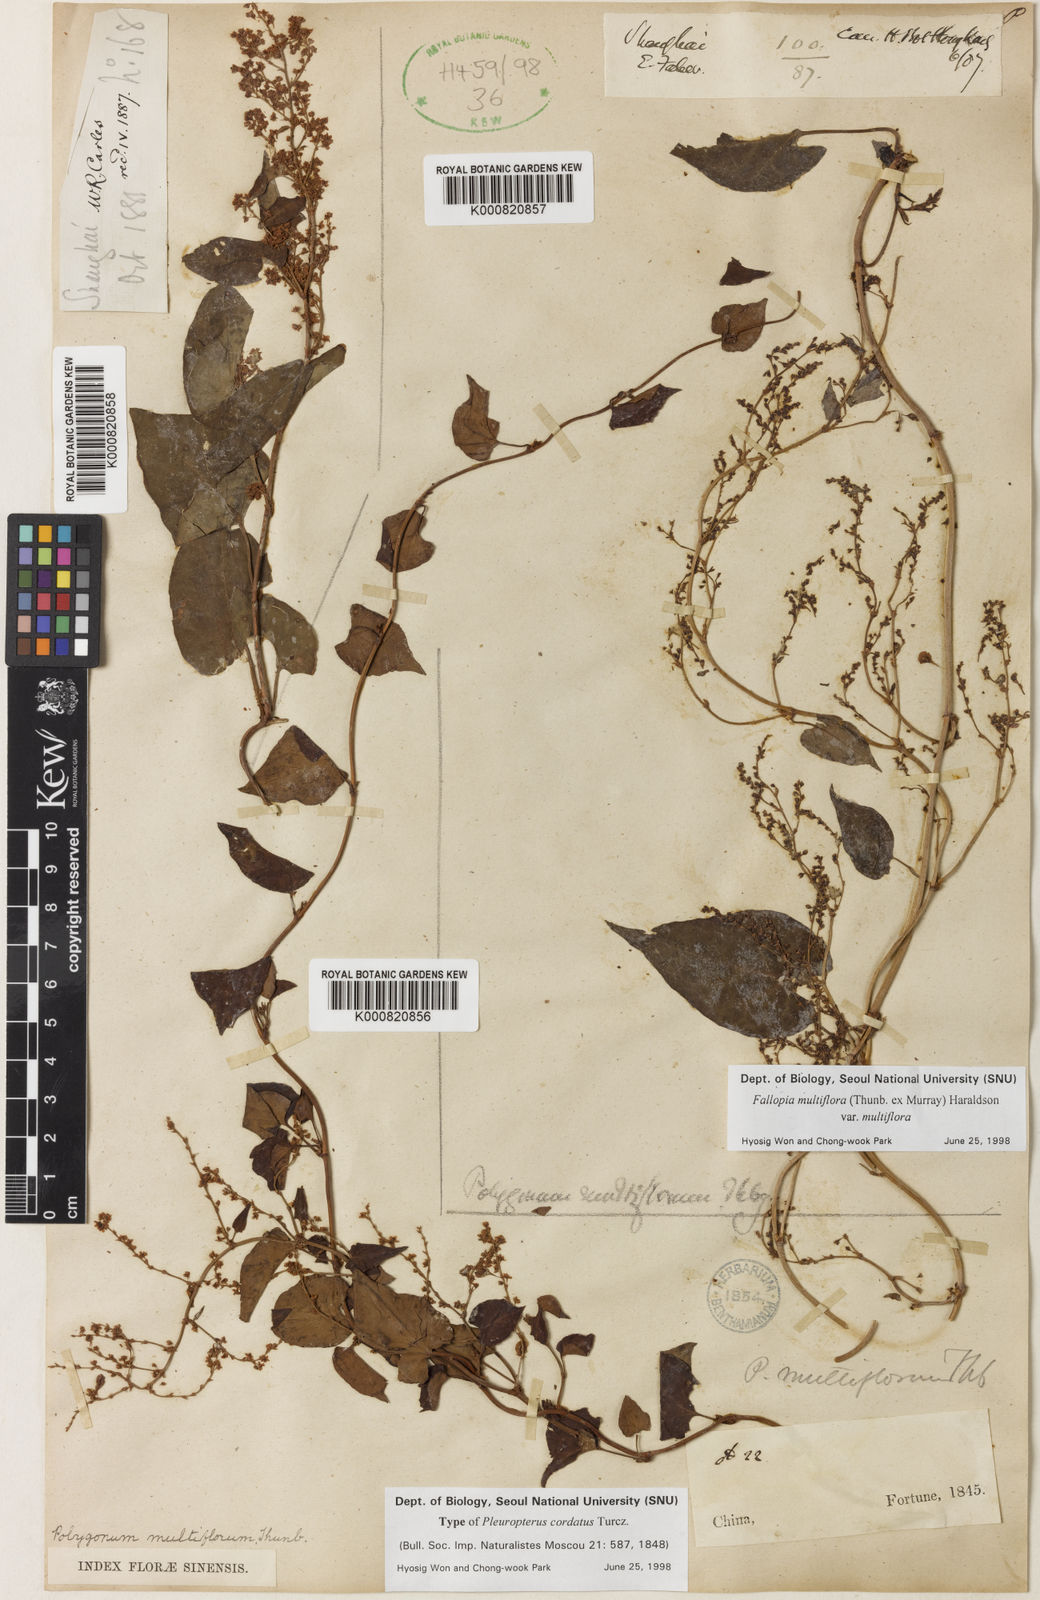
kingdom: Plantae
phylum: Tracheophyta
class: Magnoliopsida
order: Caryophyllales
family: Polygonaceae
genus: Reynoutria
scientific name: Reynoutria multiflora
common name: Chinese fleeceflower
